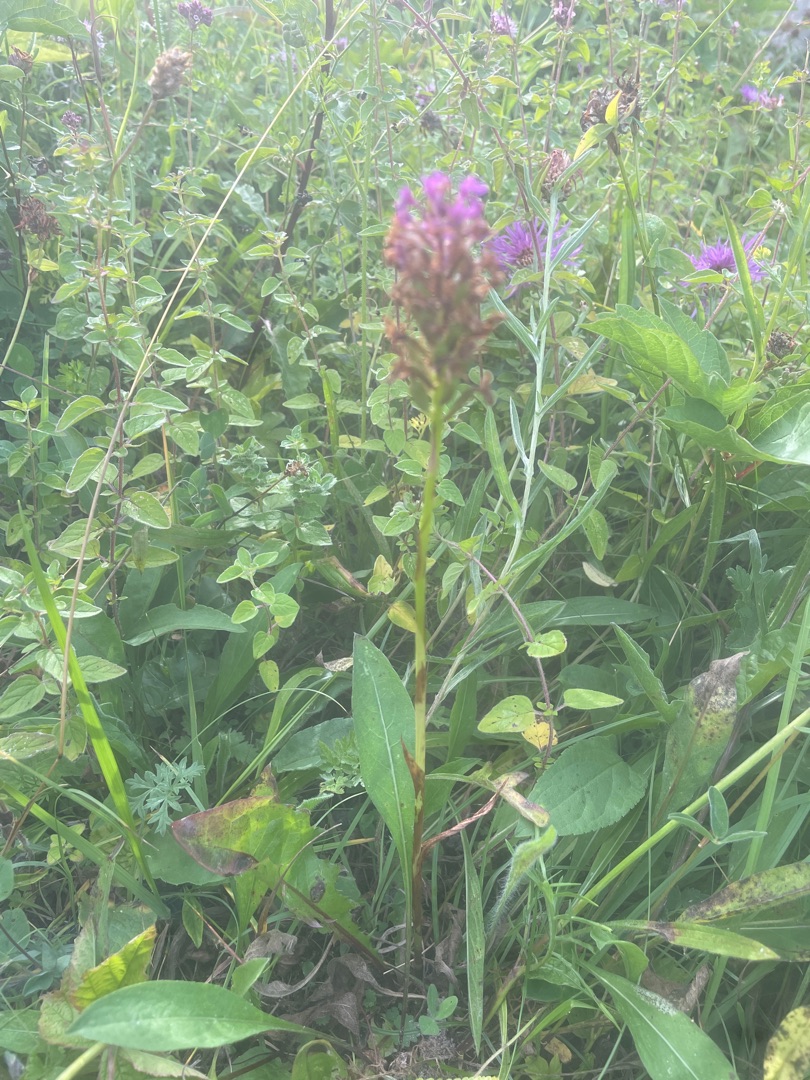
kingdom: Plantae
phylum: Tracheophyta
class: Liliopsida
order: Asparagales
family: Orchidaceae
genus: Anacamptis
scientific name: Anacamptis pyramidalis
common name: Horndrager
